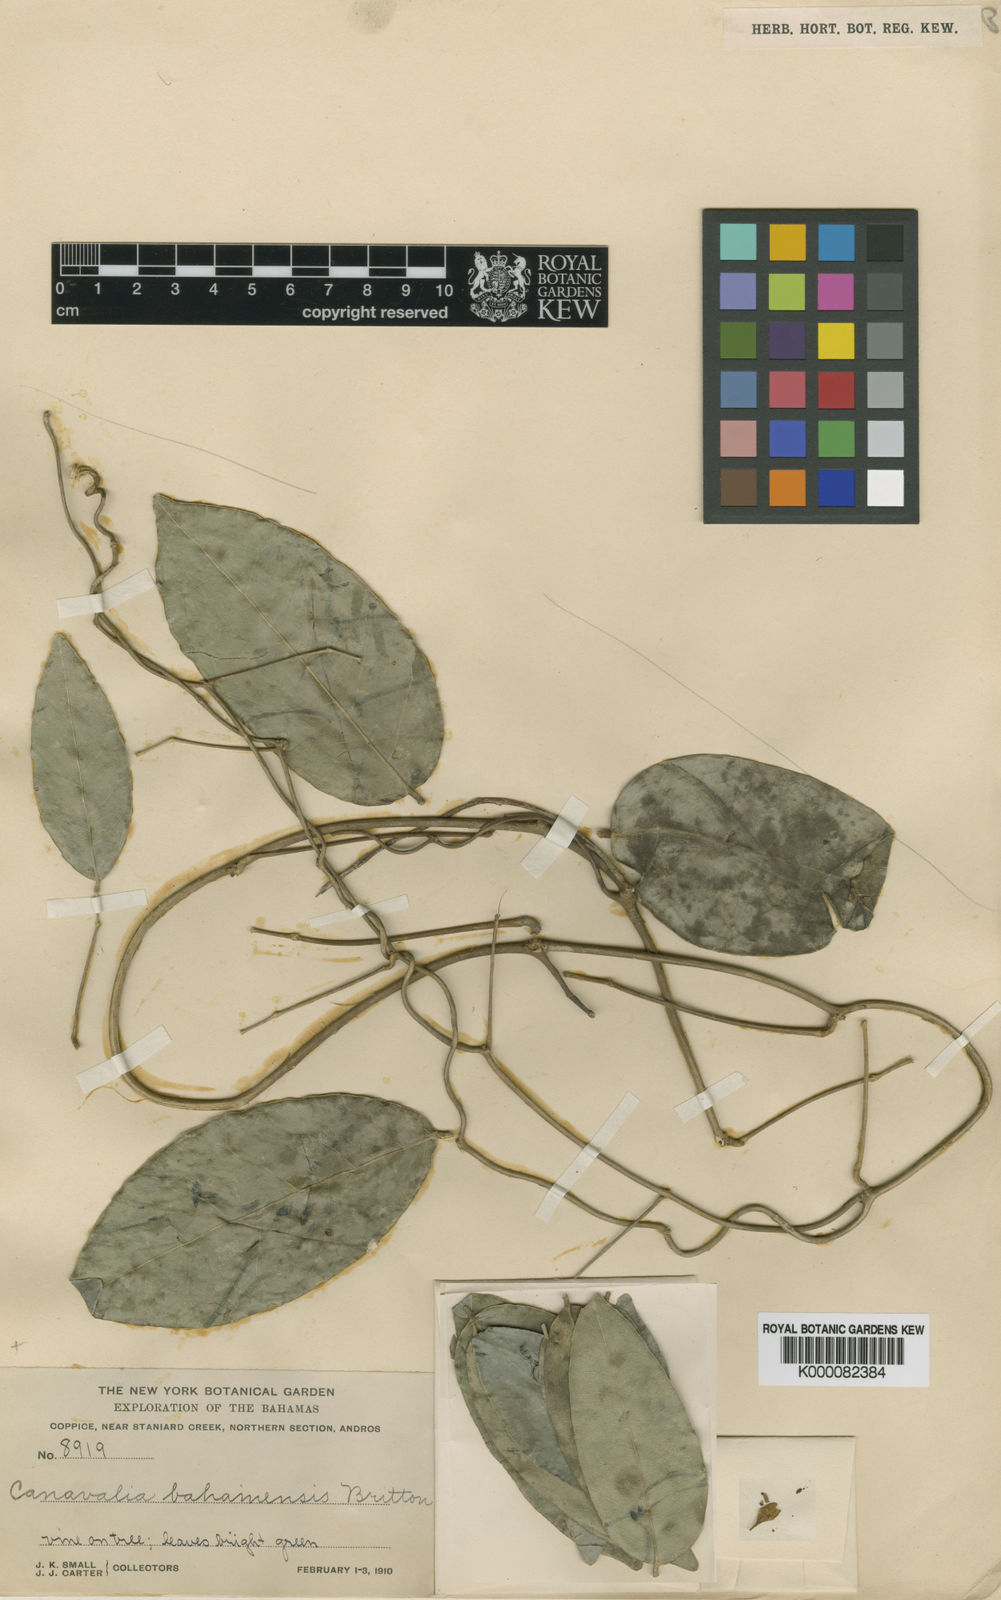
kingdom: Plantae
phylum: Tracheophyta
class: Magnoliopsida
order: Fabales
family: Fabaceae
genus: Canavalia
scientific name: Canavalia nitida
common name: Cathie's-bean
